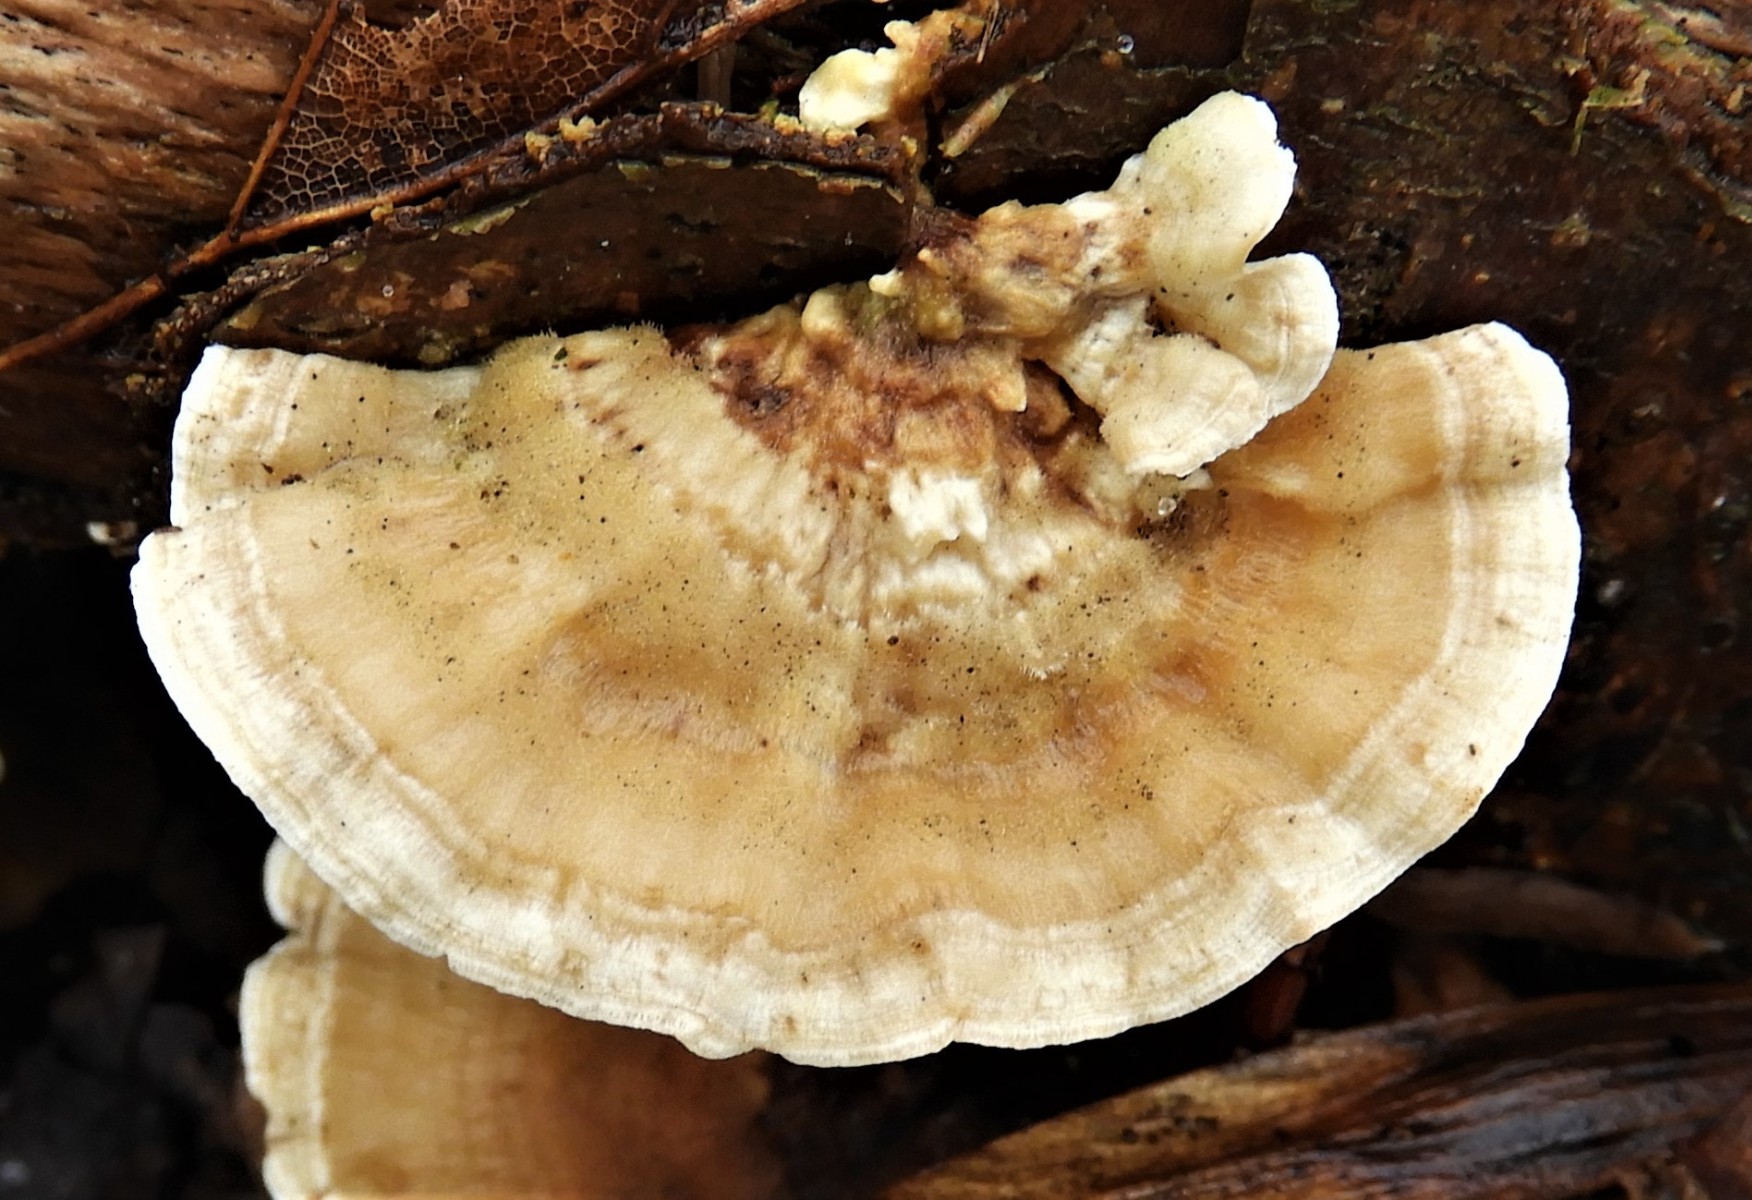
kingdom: Fungi
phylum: Basidiomycota
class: Agaricomycetes
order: Polyporales
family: Polyporaceae
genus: Trametes
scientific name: Trametes ochracea
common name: bæltet læderporesvamp
